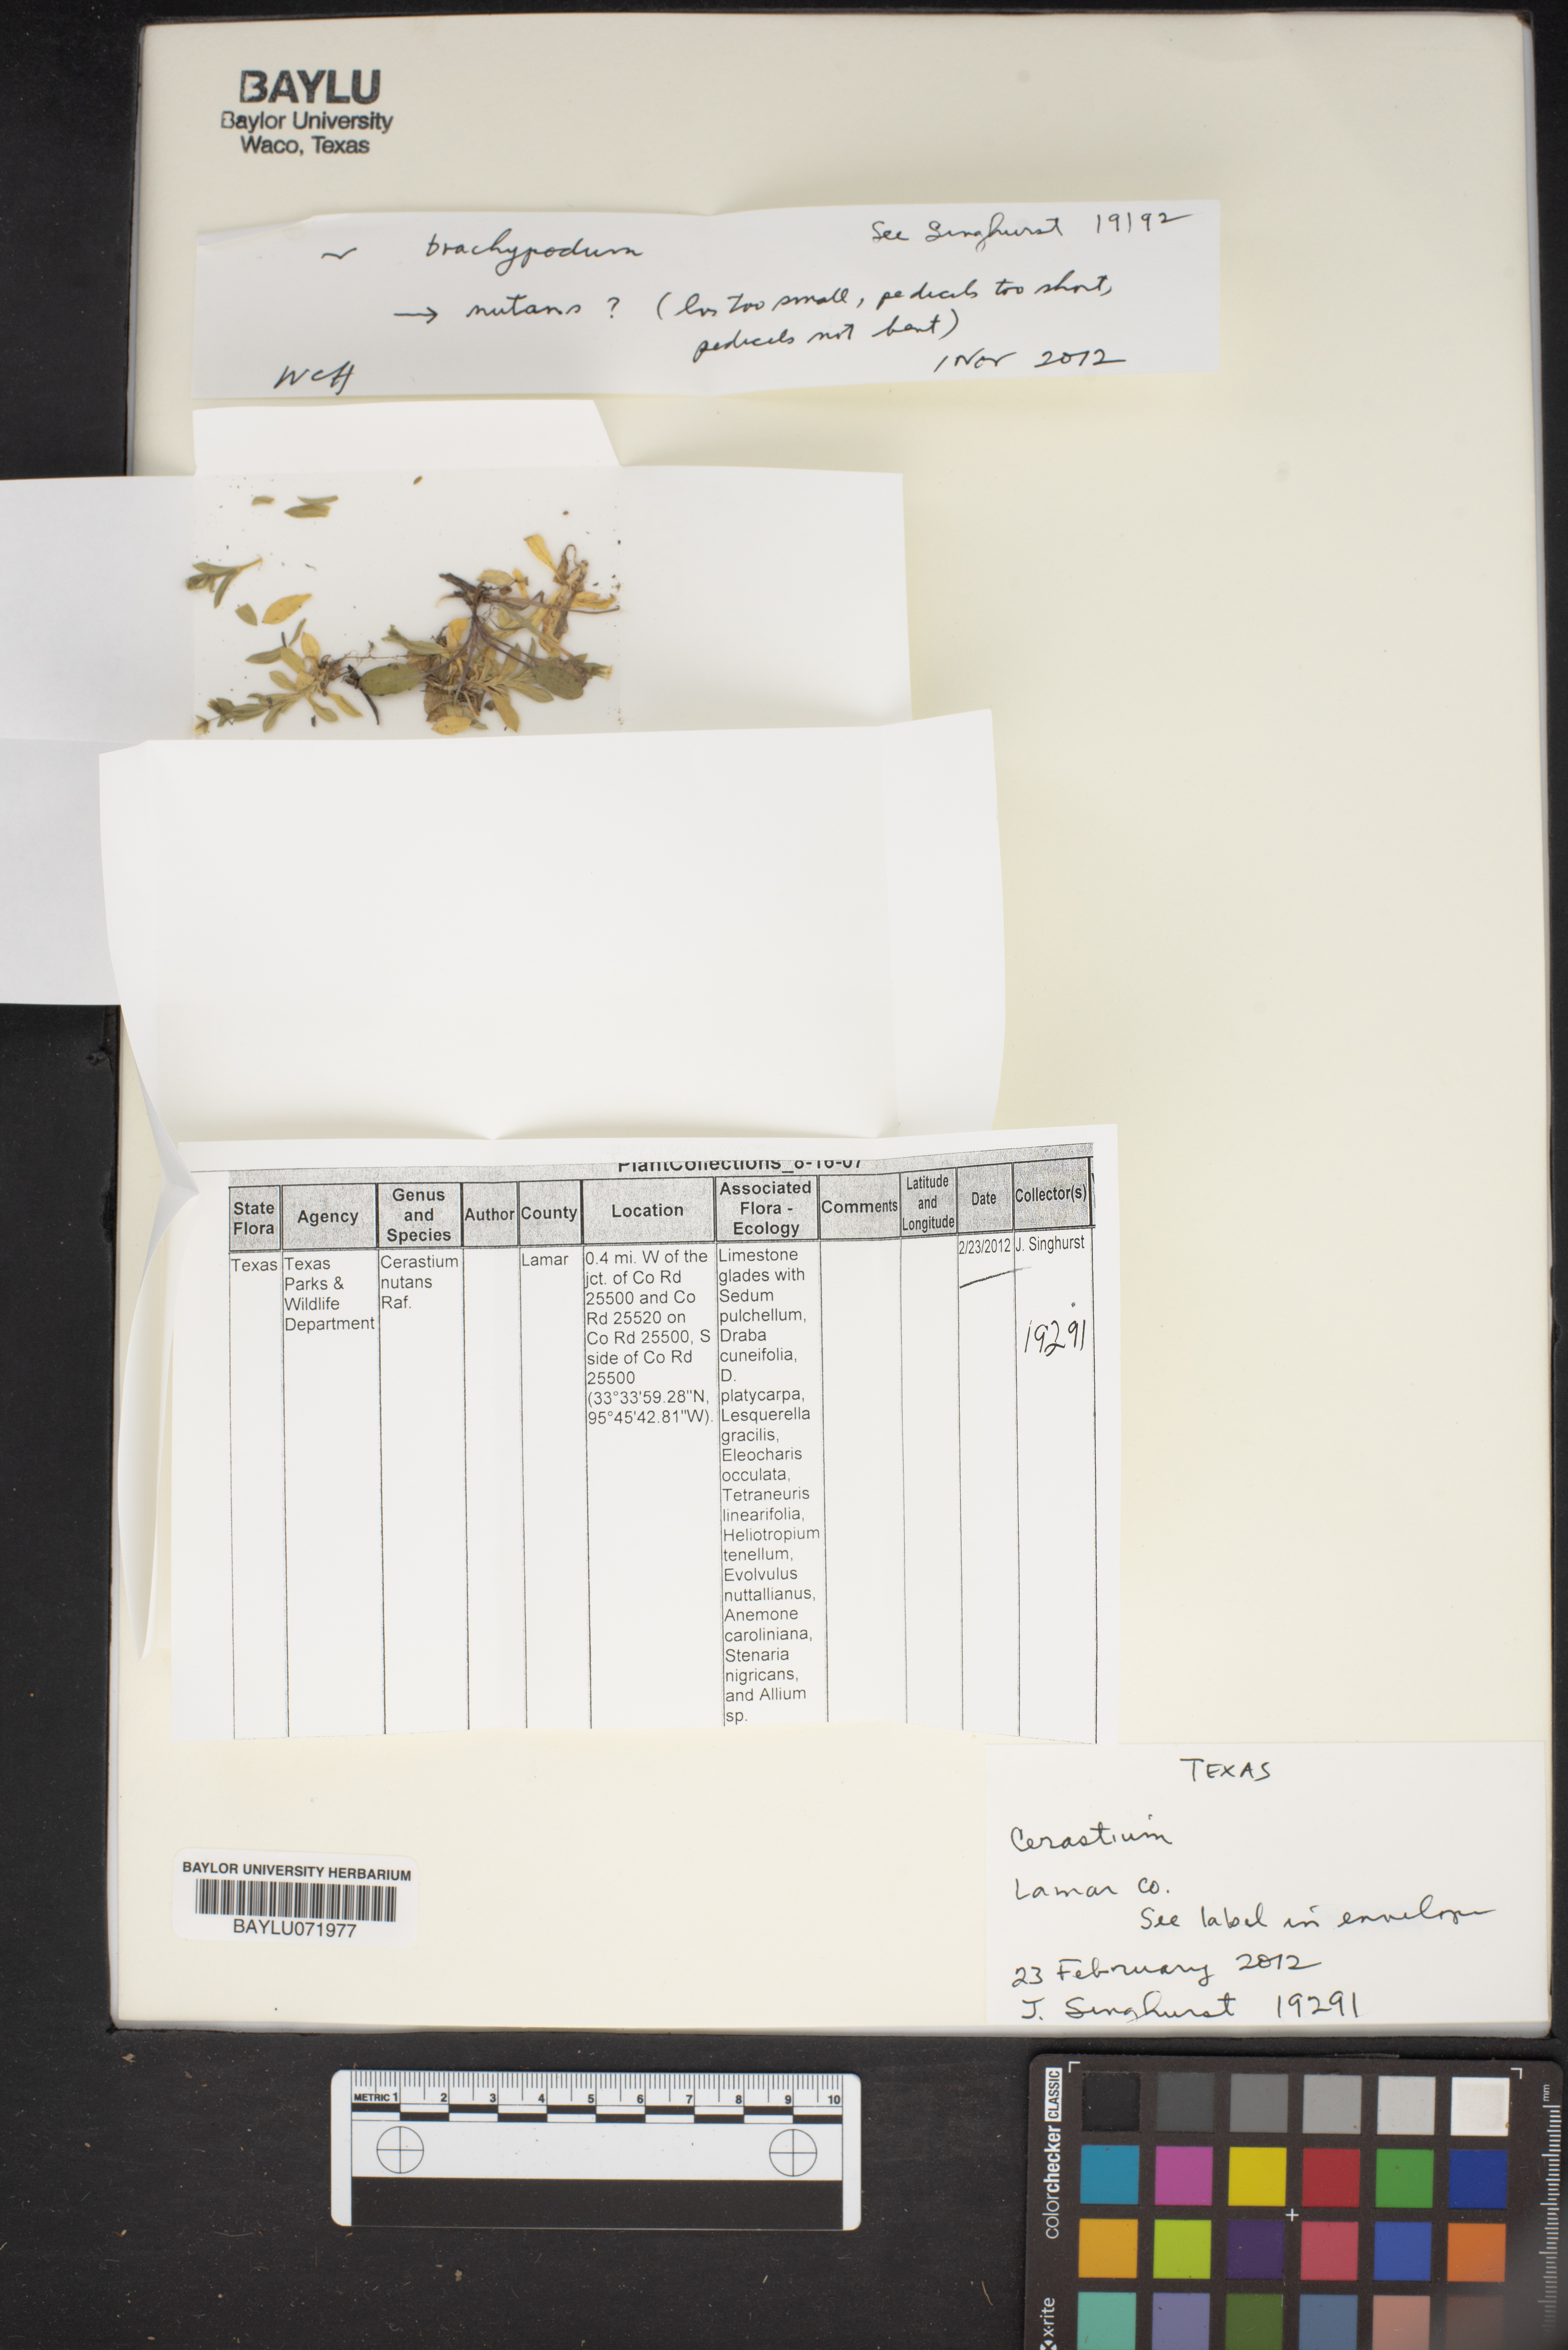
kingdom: Plantae
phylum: Tracheophyta
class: Magnoliopsida
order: Caryophyllales
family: Caryophyllaceae
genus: Cerastium
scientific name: Cerastium
